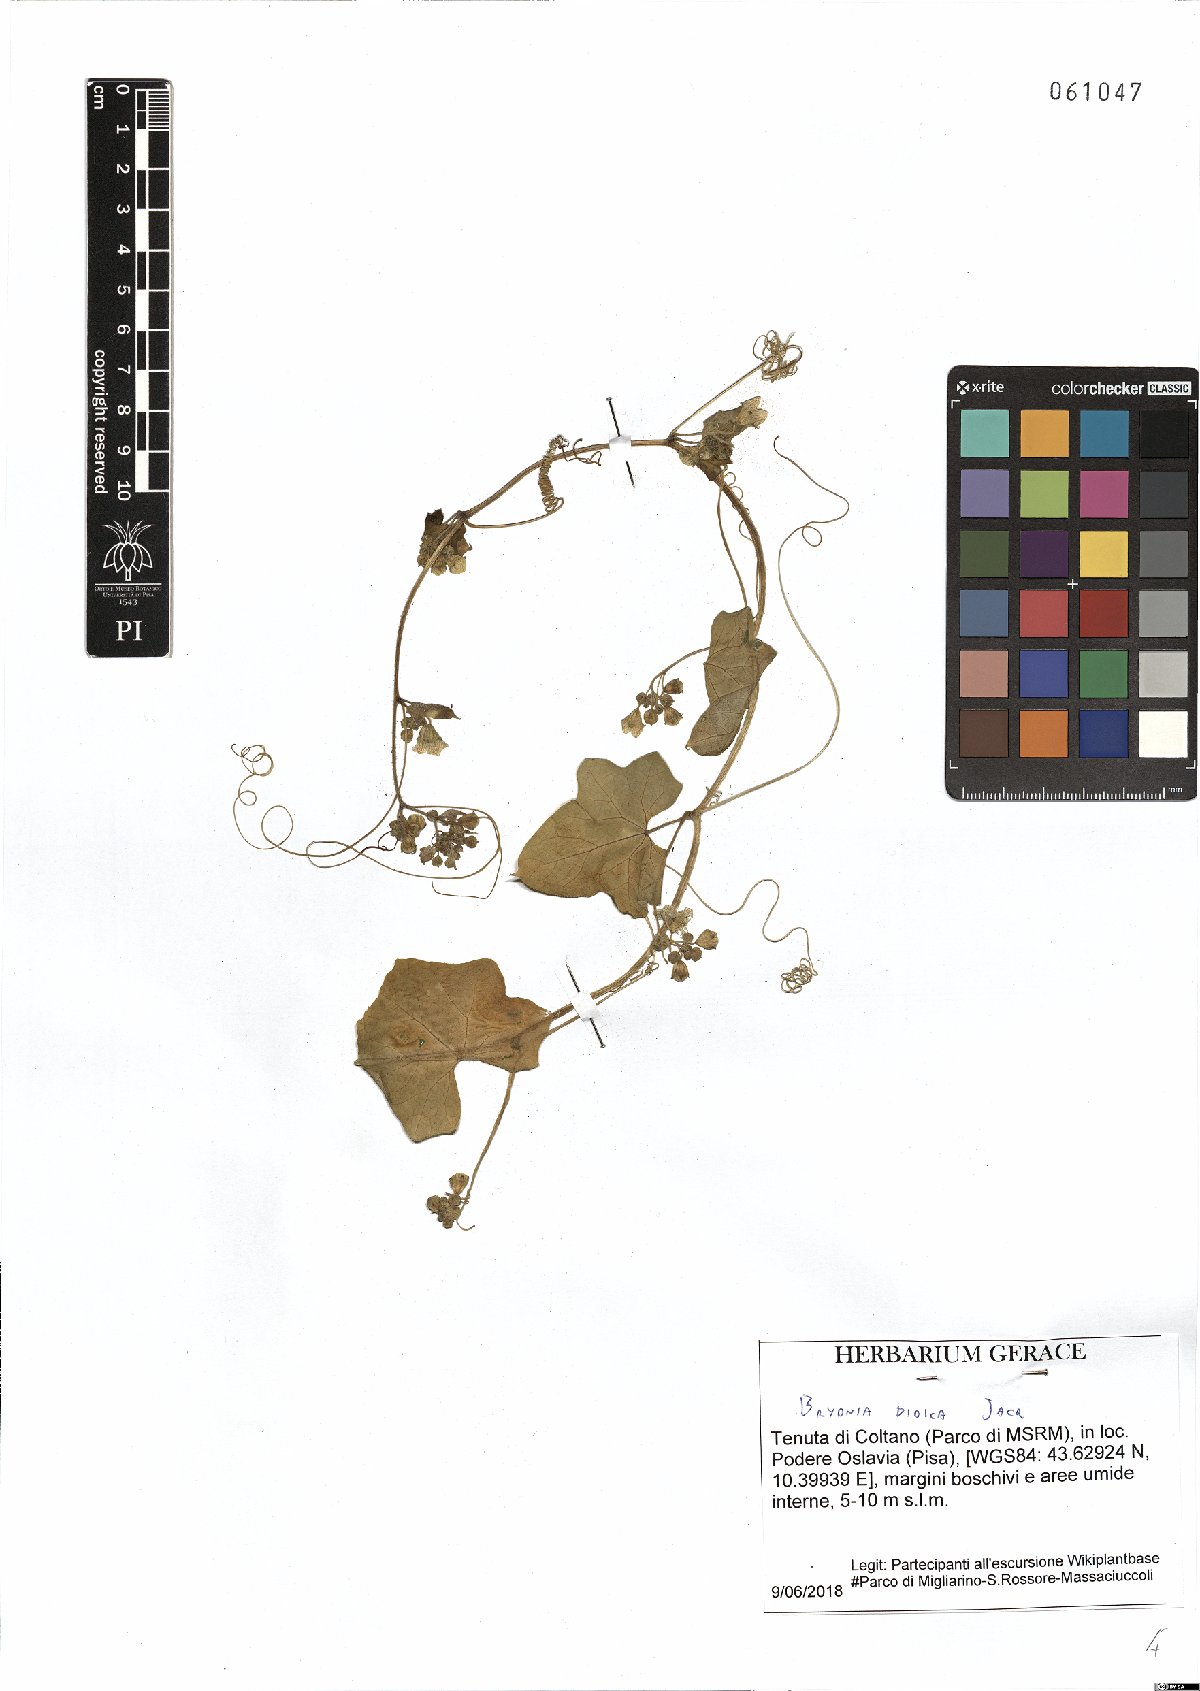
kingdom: Plantae
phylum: Tracheophyta
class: Magnoliopsida
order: Cucurbitales
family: Cucurbitaceae
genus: Bryonia
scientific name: Bryonia dioica
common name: White bryony
